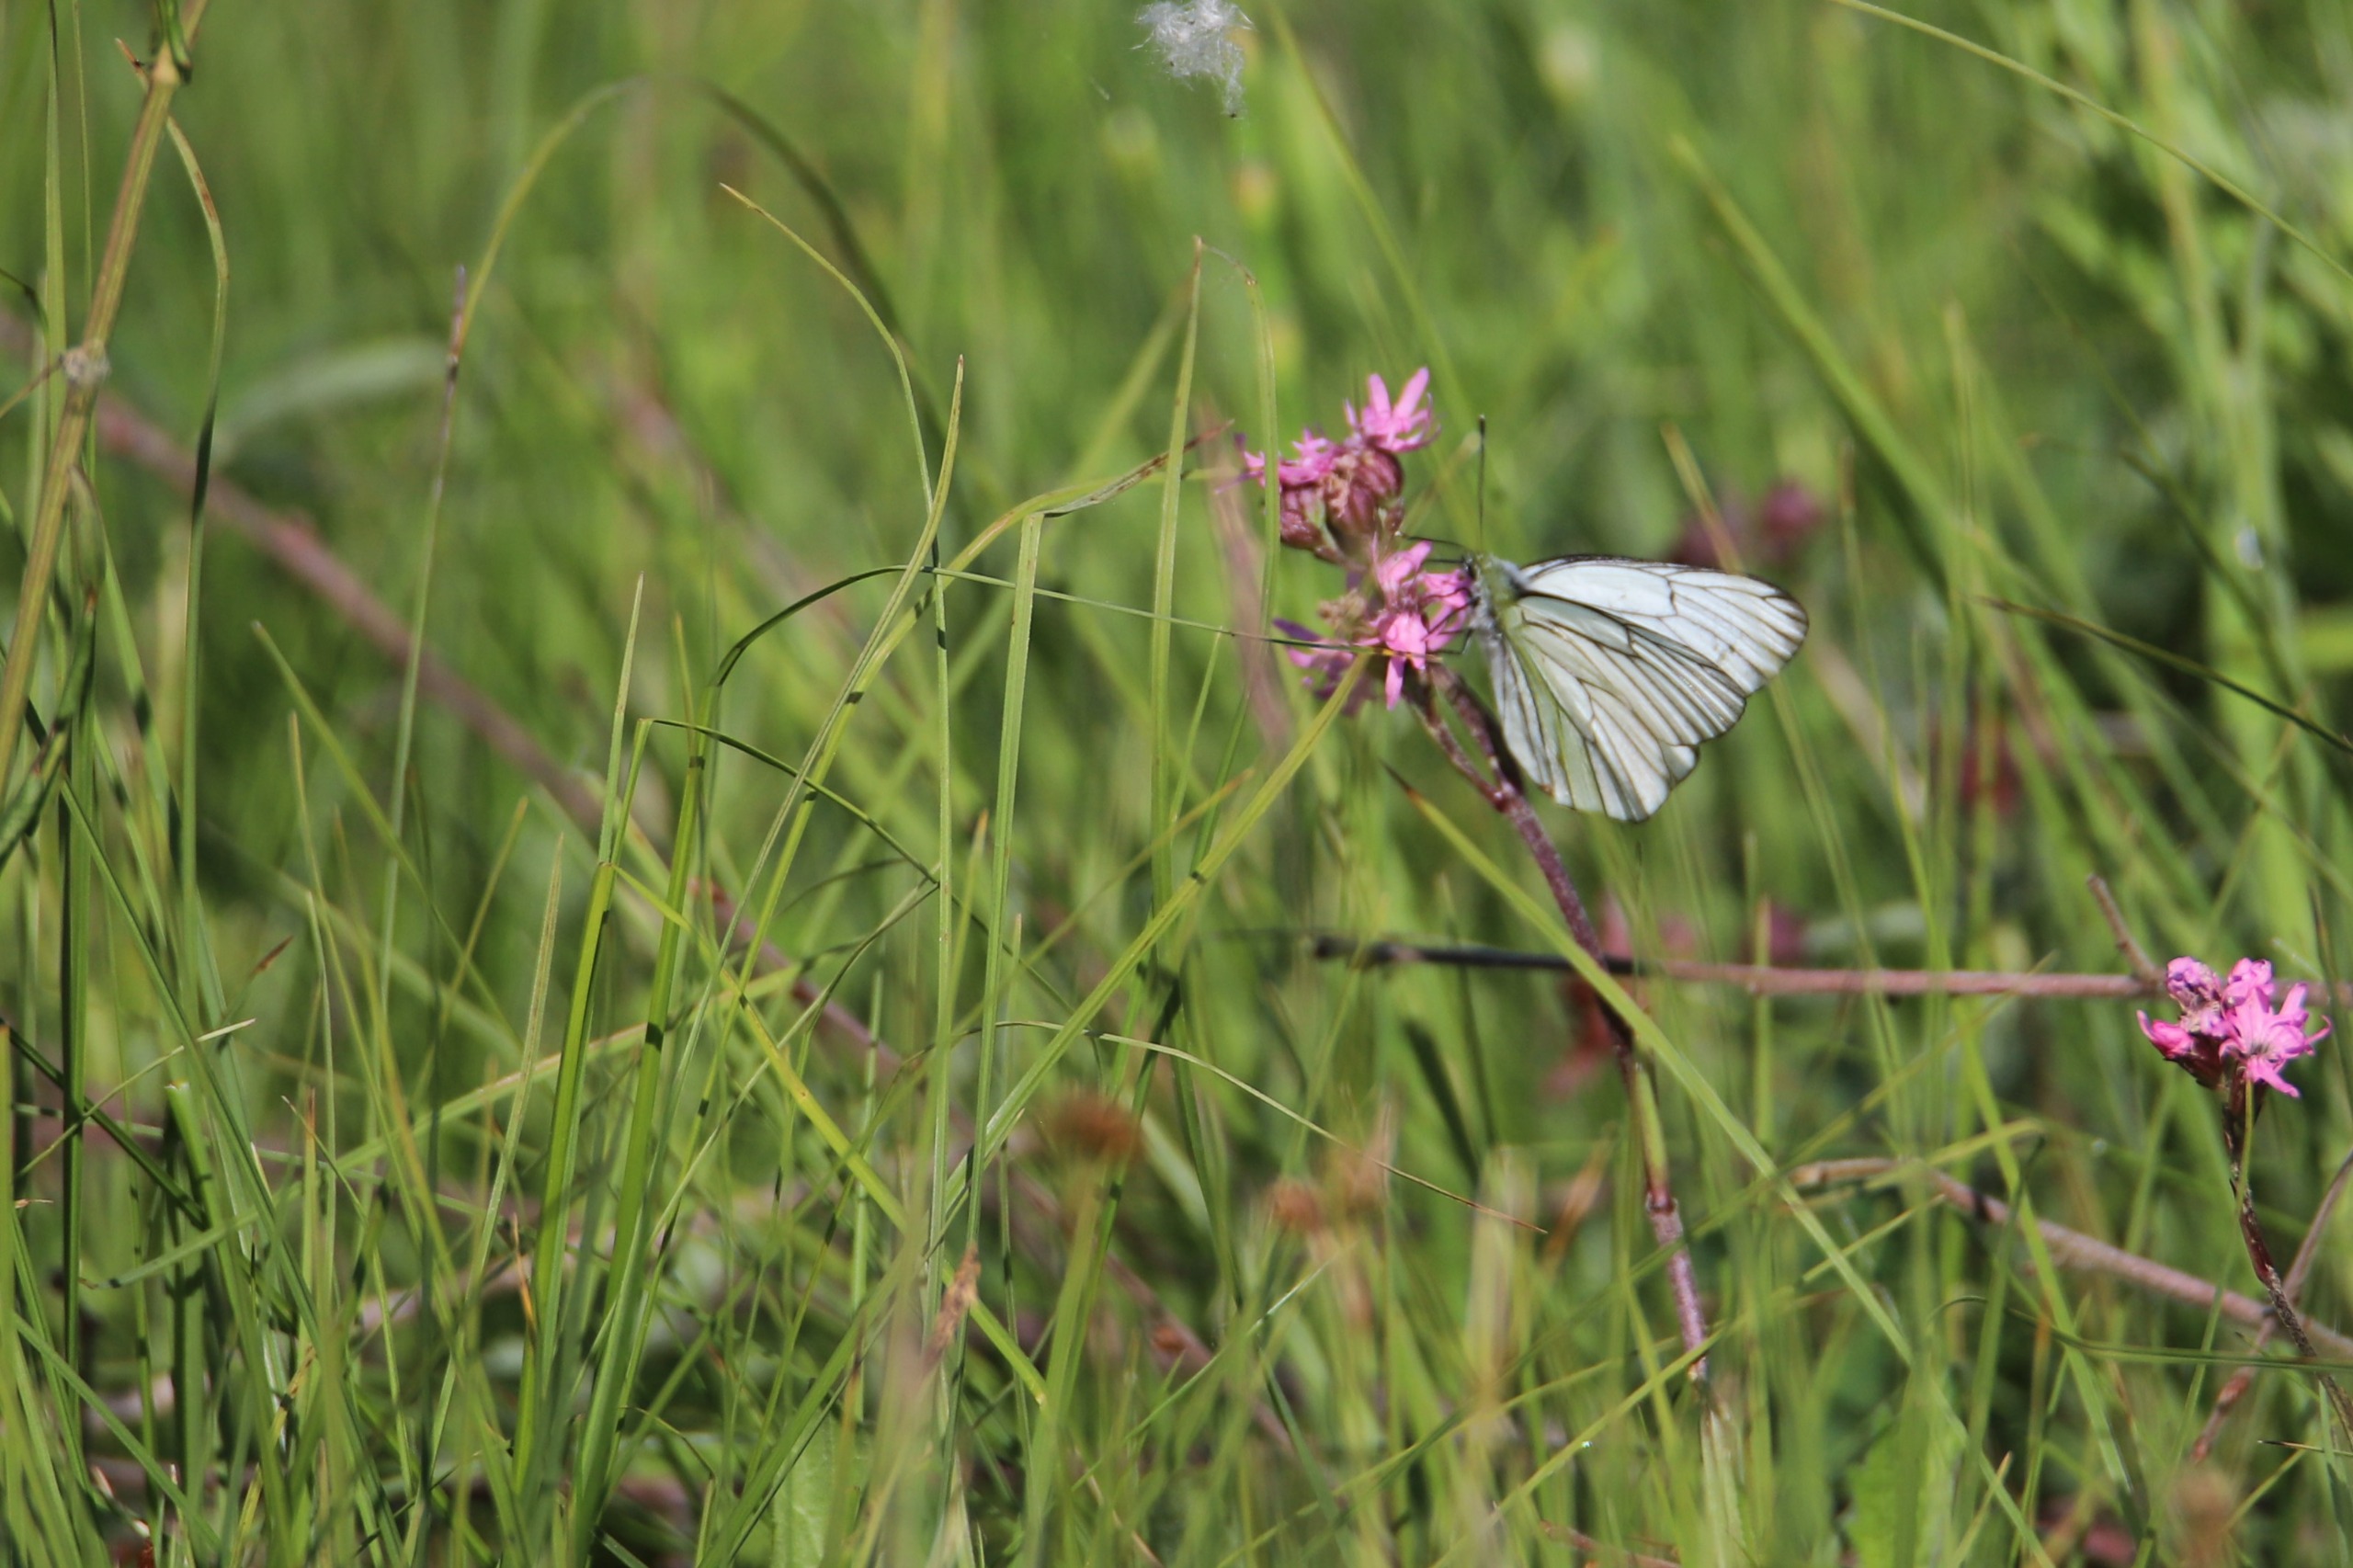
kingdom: Animalia
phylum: Arthropoda
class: Insecta
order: Lepidoptera
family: Pieridae
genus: Aporia
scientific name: Aporia crataegi
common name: Sortåret hvidvinge
